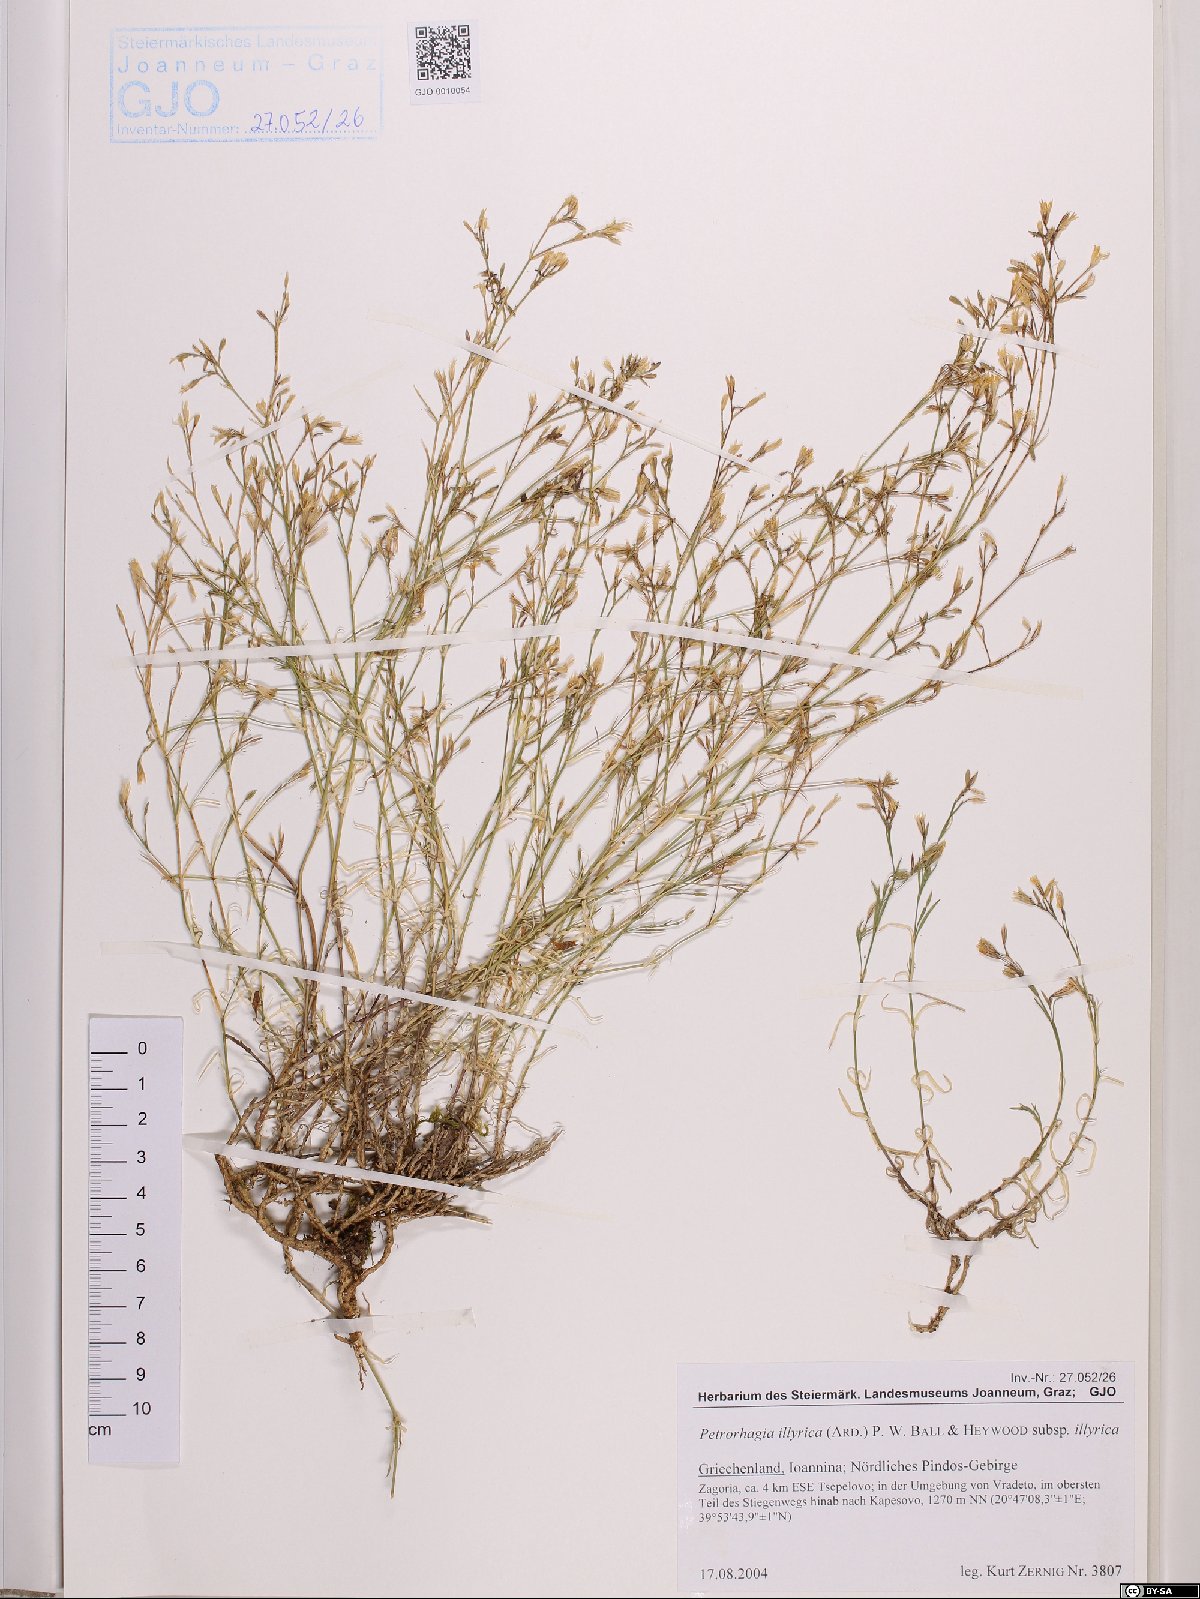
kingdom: Plantae
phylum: Tracheophyta
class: Magnoliopsida
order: Caryophyllales
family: Caryophyllaceae
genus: Dianthus
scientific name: Dianthus illyricus
